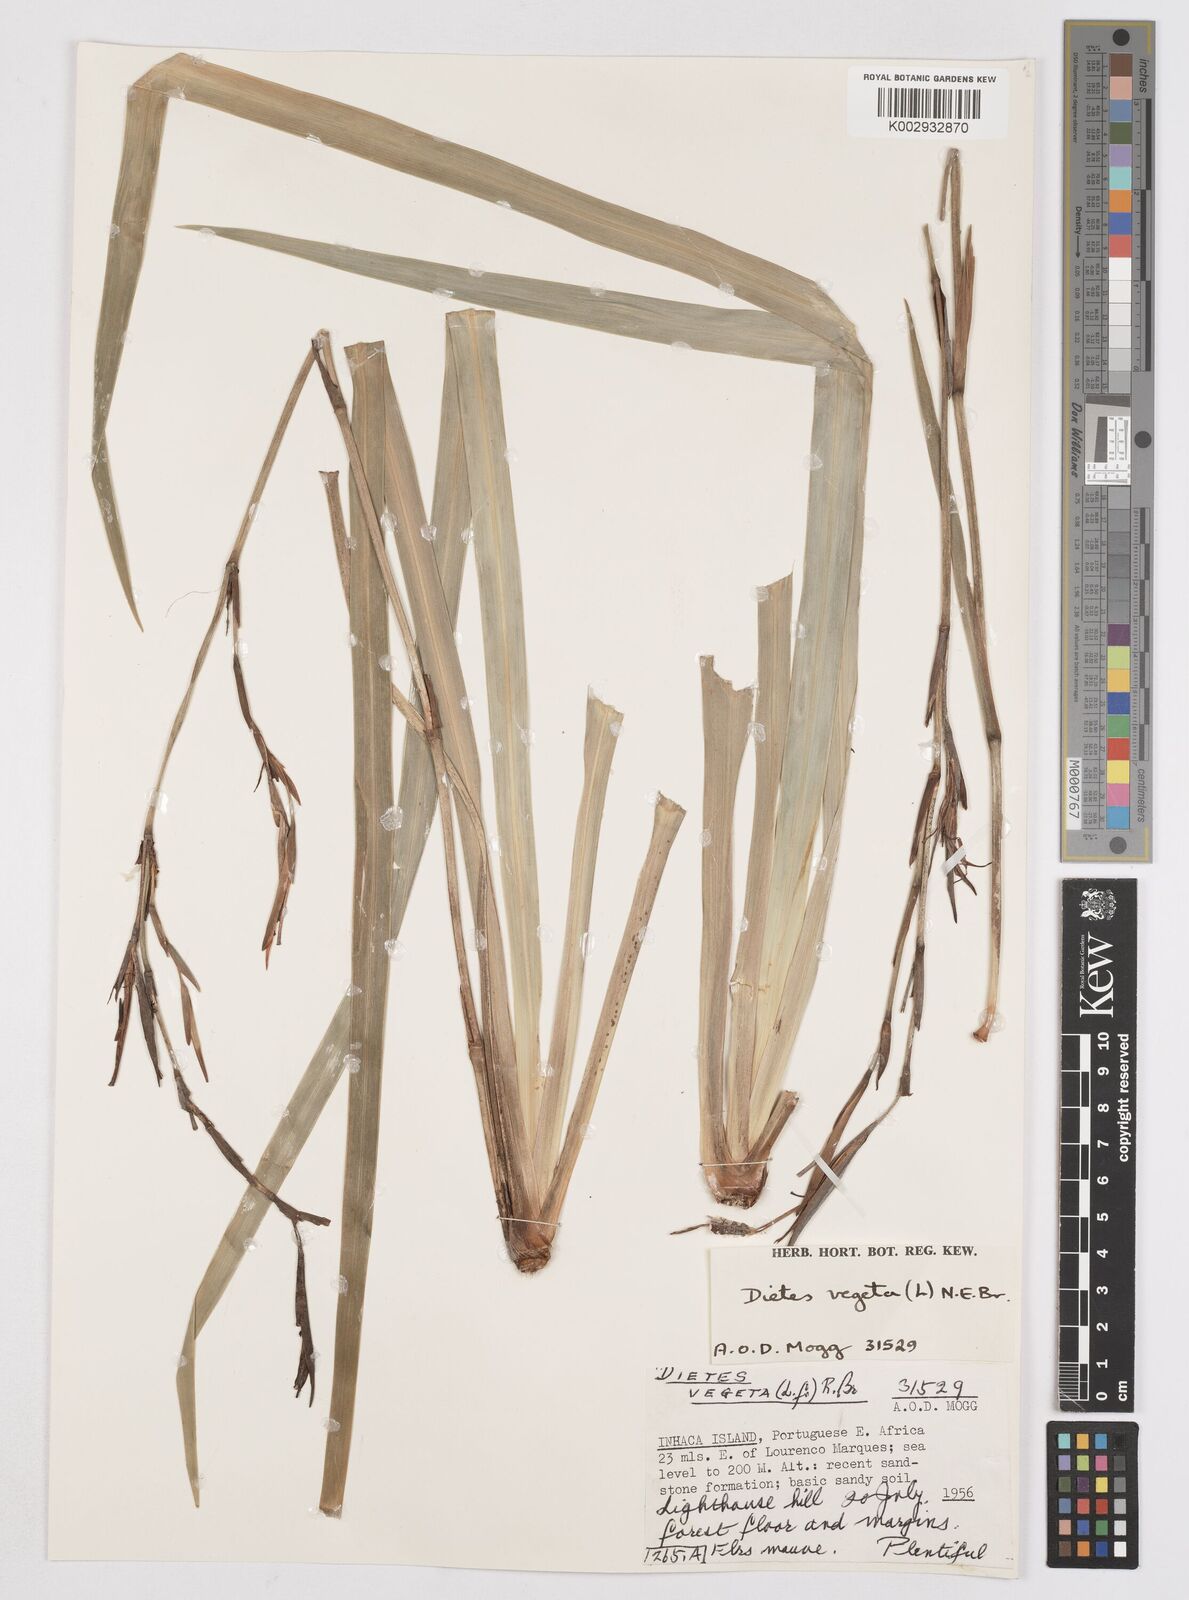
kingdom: Plantae
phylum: Tracheophyta
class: Liliopsida
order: Asparagales
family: Iridaceae
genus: Dietes
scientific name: Dietes iridioides
